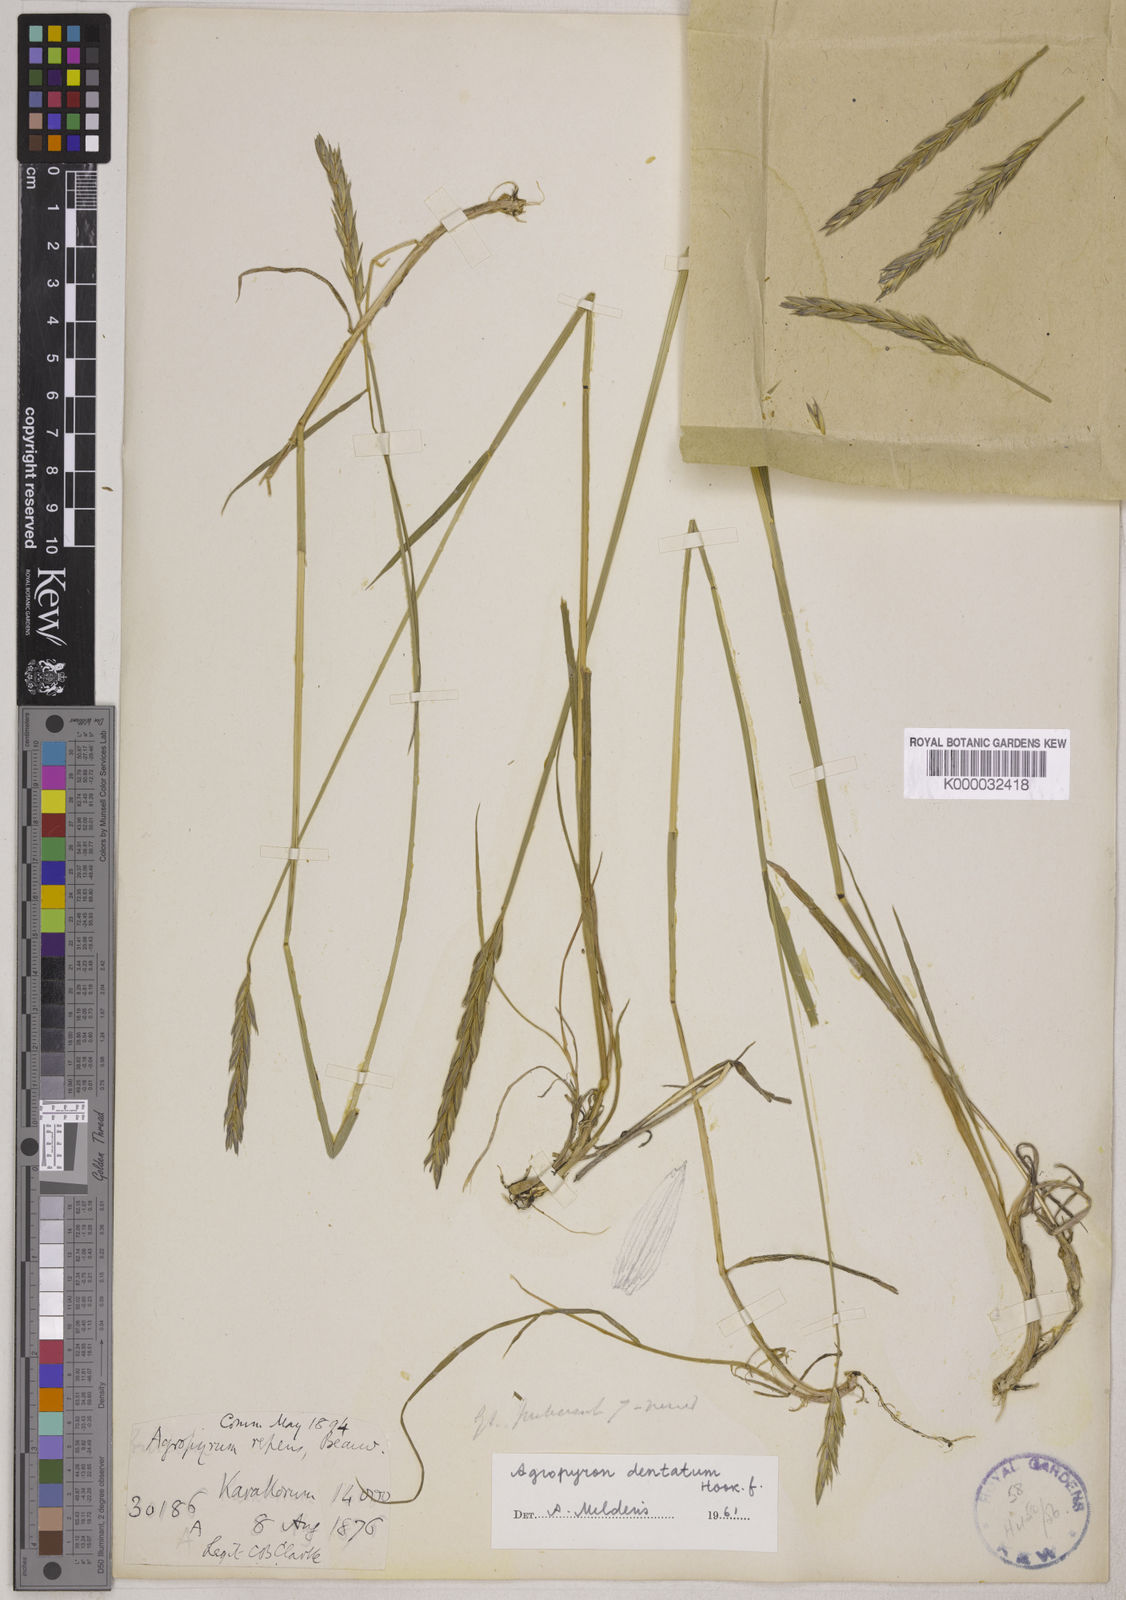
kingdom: Plantae
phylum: Tracheophyta
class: Liliopsida
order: Poales
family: Poaceae
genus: Elymus
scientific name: Elymus
